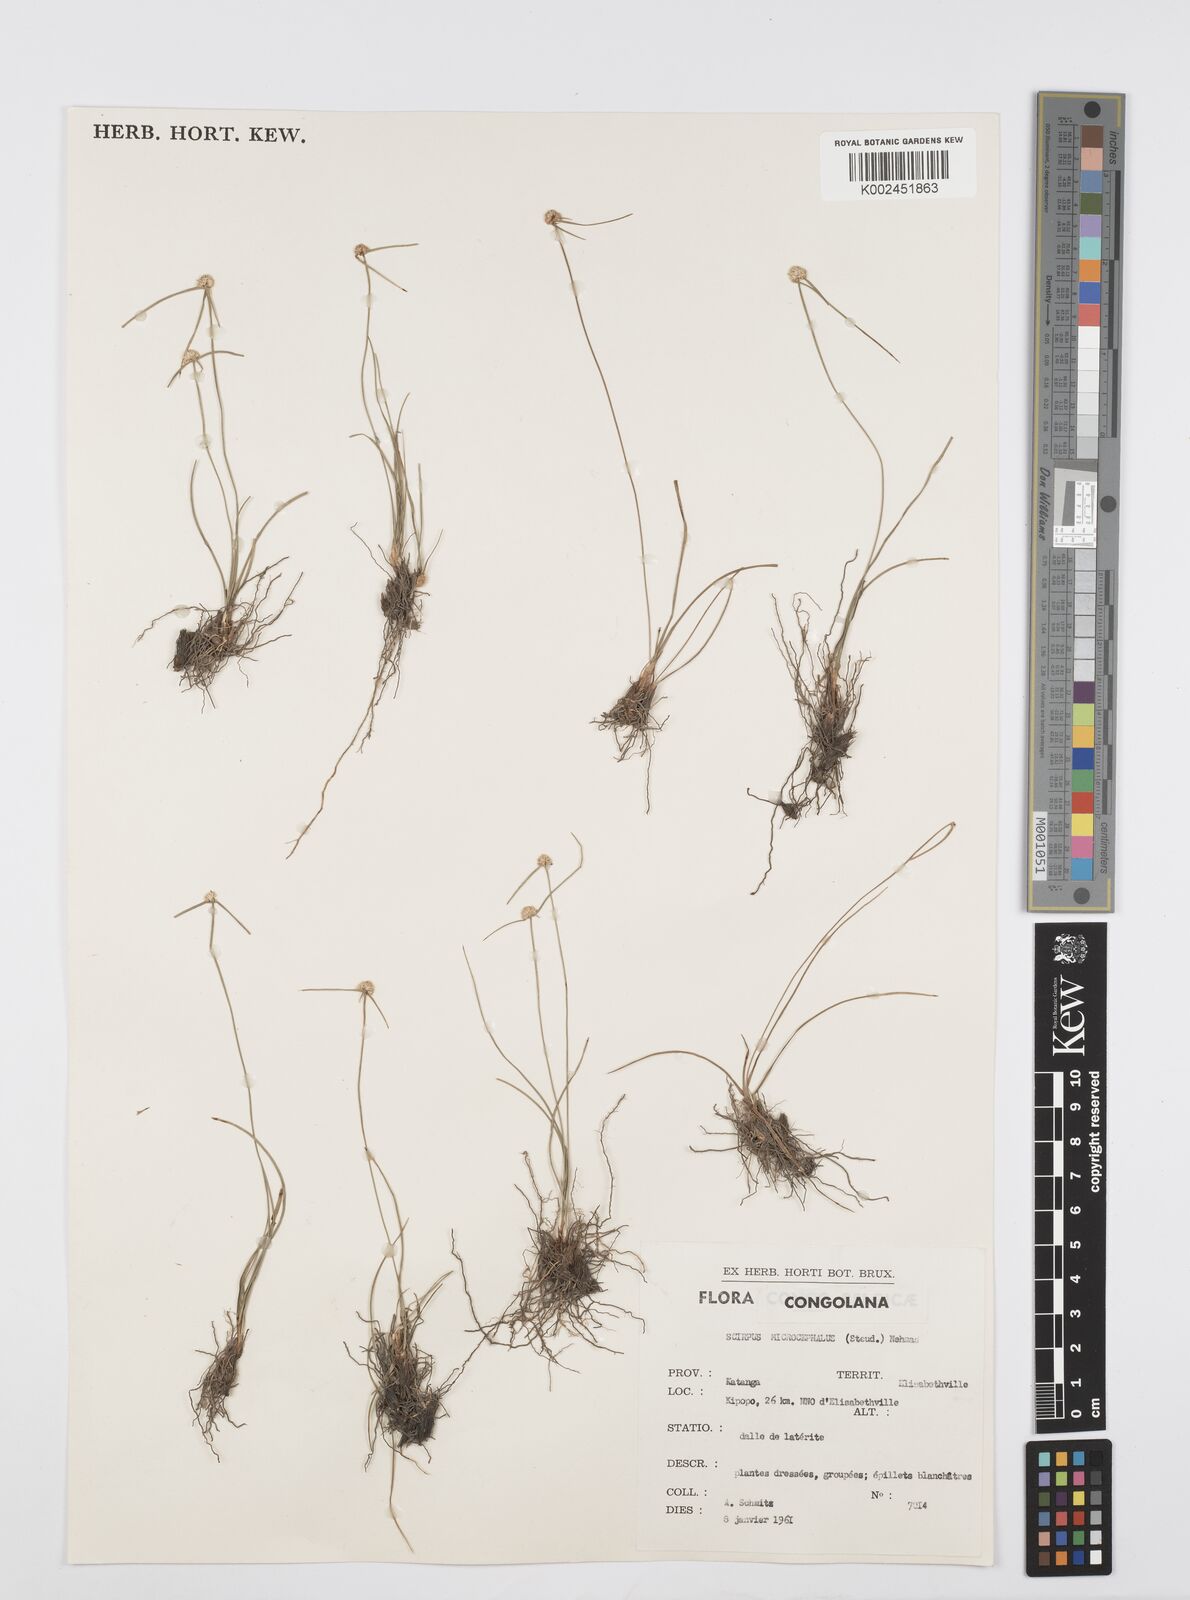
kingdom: Plantae
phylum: Tracheophyta
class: Liliopsida
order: Poales
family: Cyperaceae
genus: Cyperus
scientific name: Cyperus microcephalus
